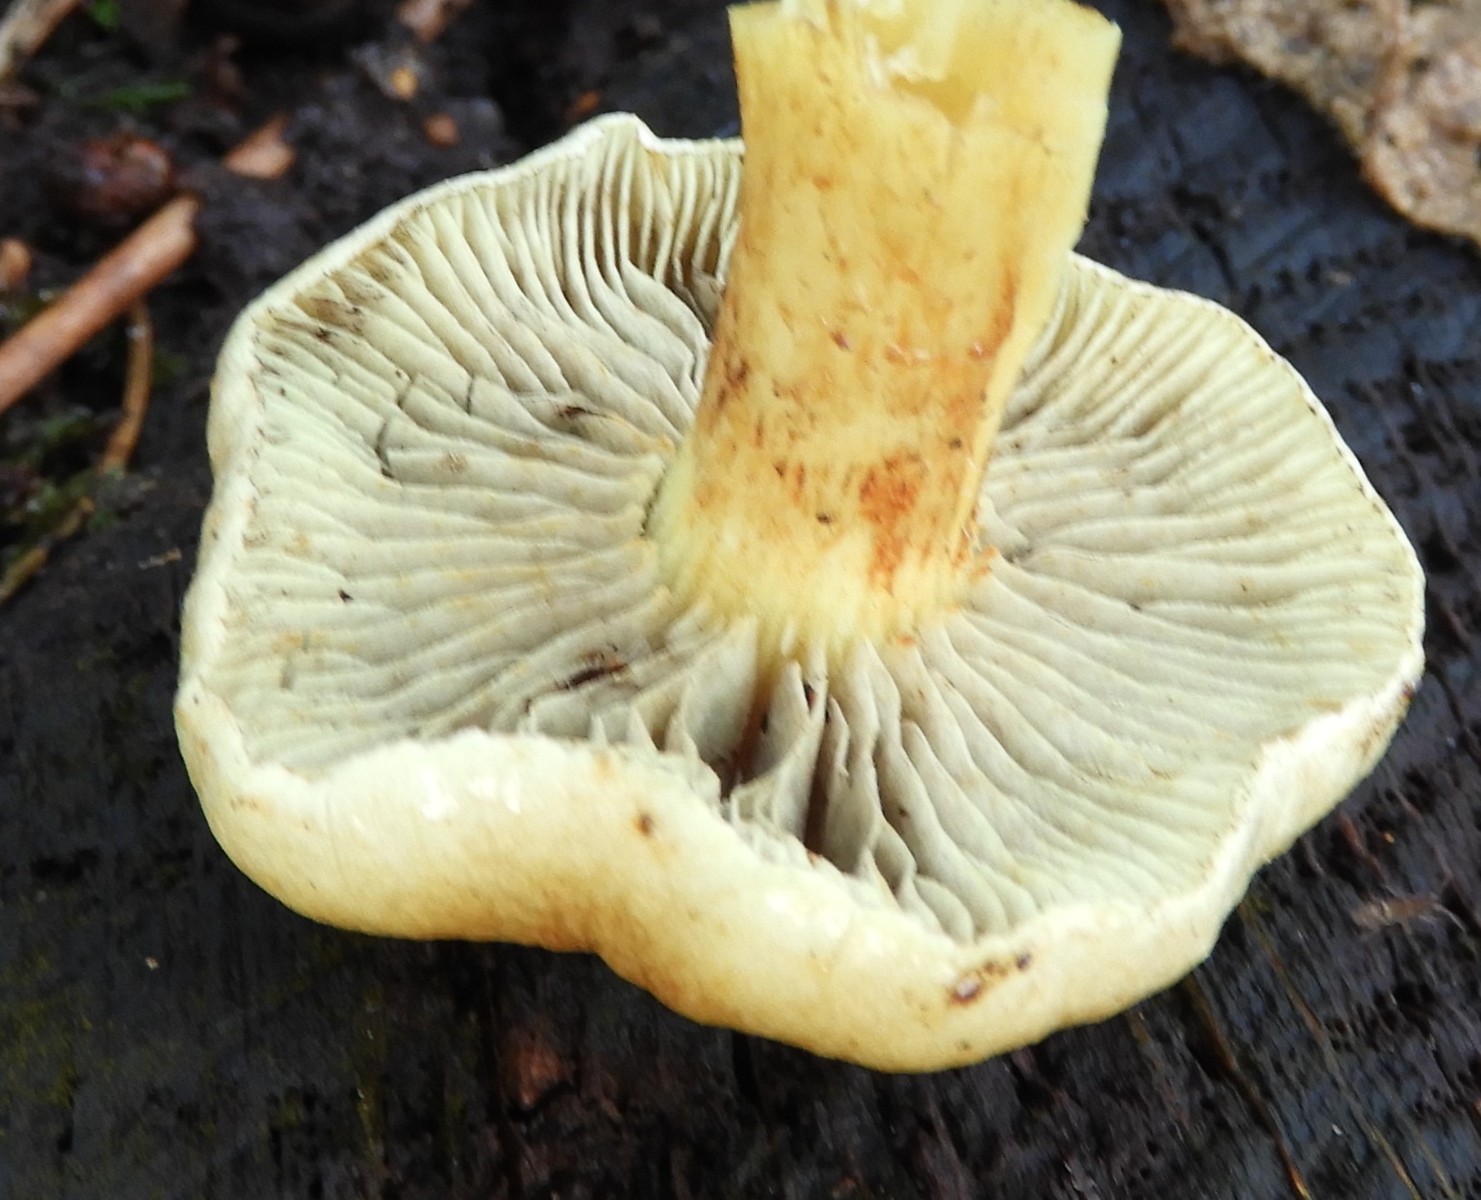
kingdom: Fungi
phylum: Basidiomycota
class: Agaricomycetes
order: Agaricales
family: Strophariaceae
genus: Hypholoma
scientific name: Hypholoma fasciculare
